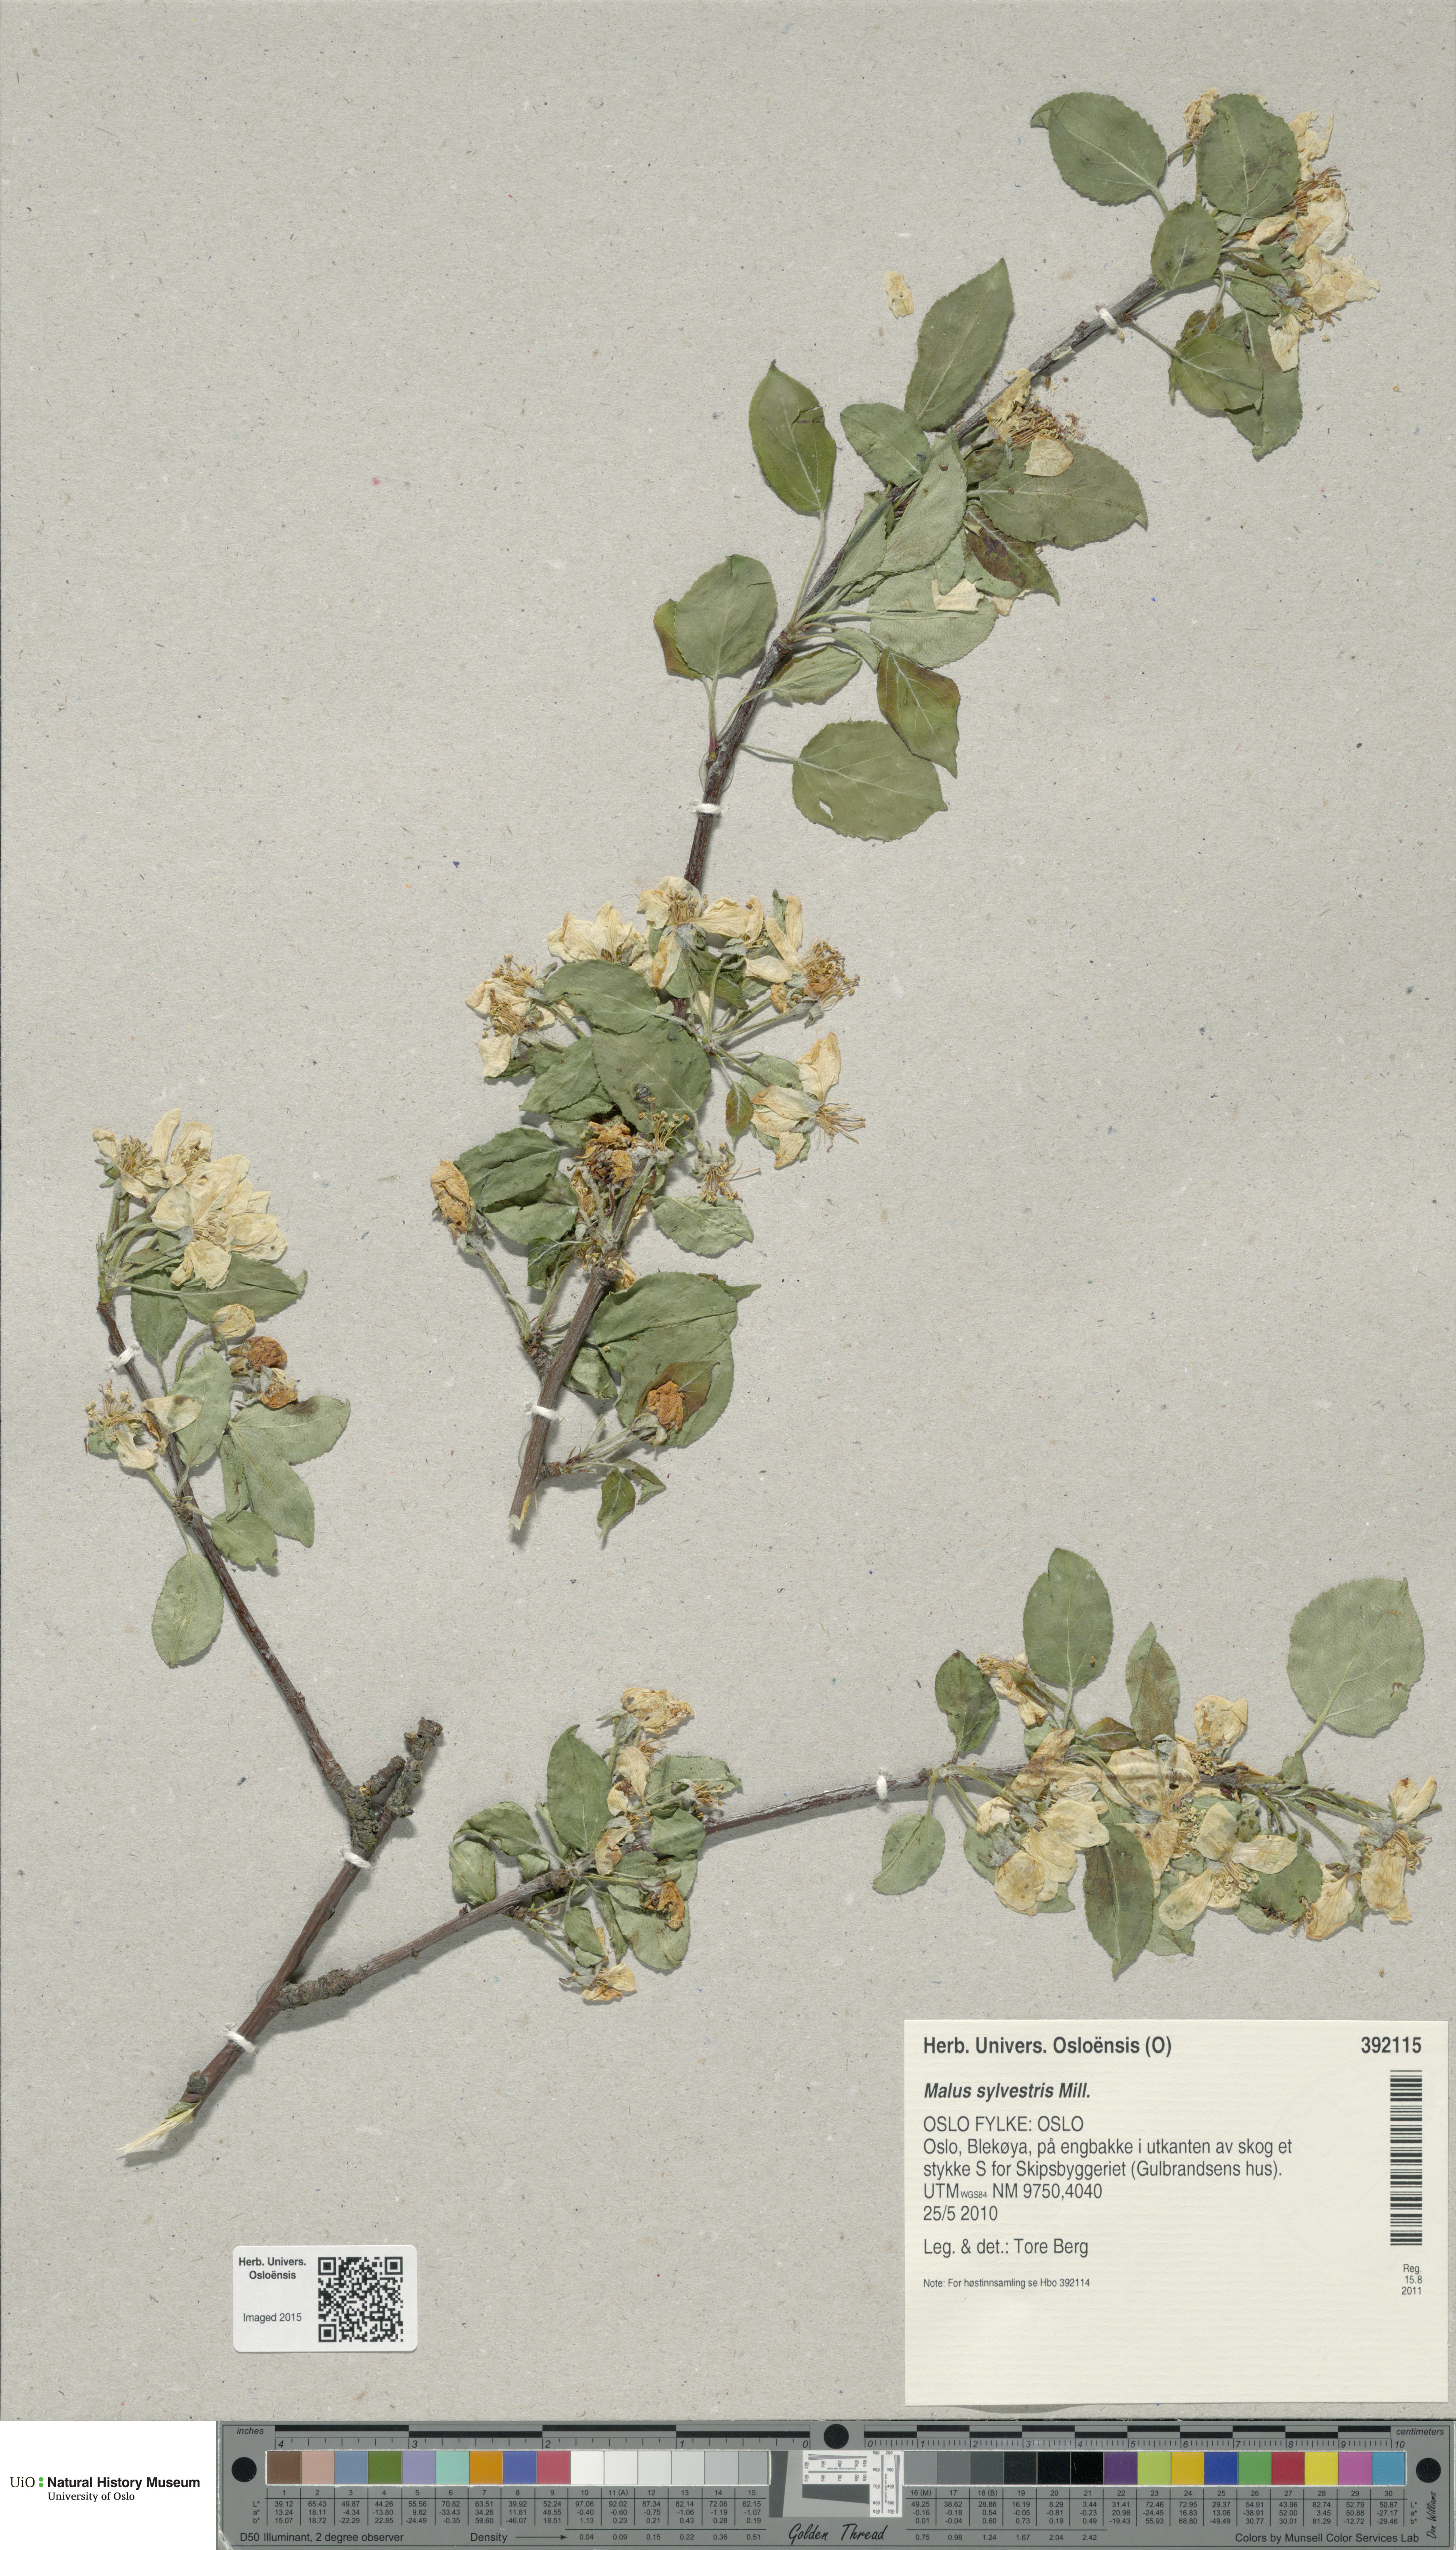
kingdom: Plantae
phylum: Tracheophyta
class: Magnoliopsida
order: Rosales
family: Rosaceae
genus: Malus
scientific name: Malus sylvestris
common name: Crab apple
